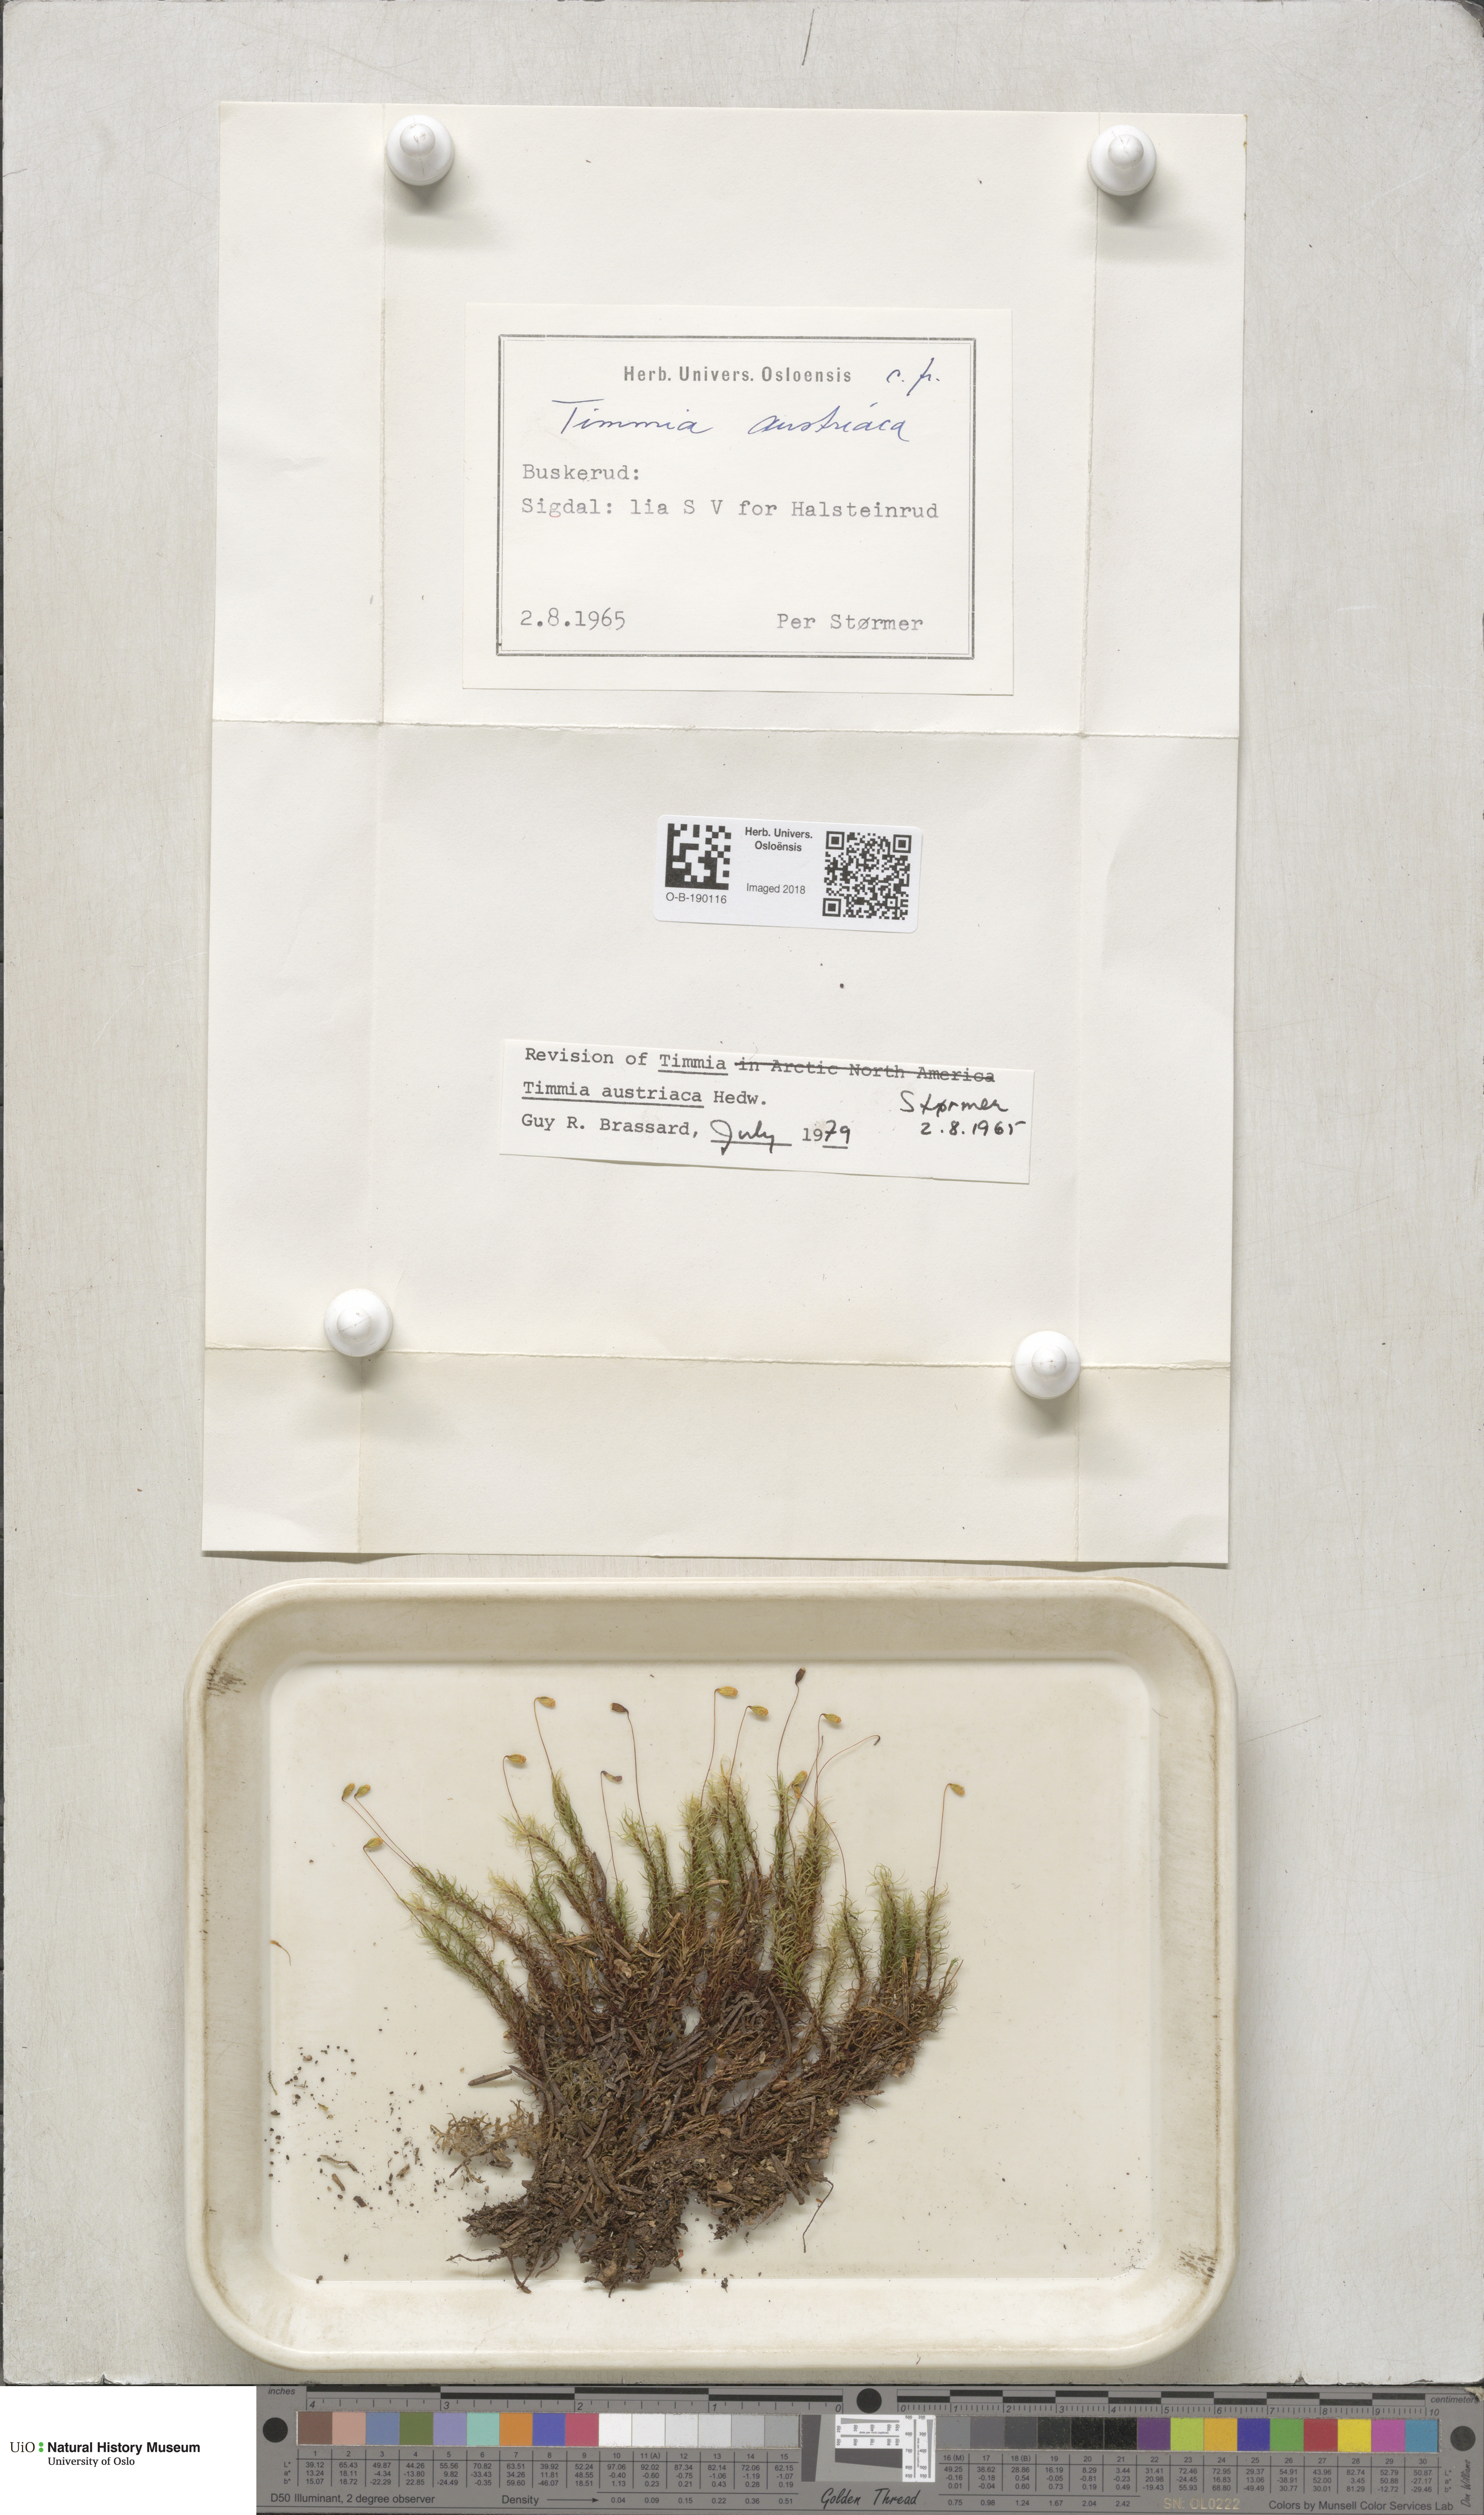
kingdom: Plantae
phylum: Bryophyta
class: Bryopsida
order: Timmiales
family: Timmiaceae
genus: Timmia
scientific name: Timmia austriaca
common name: Austrian timmia
